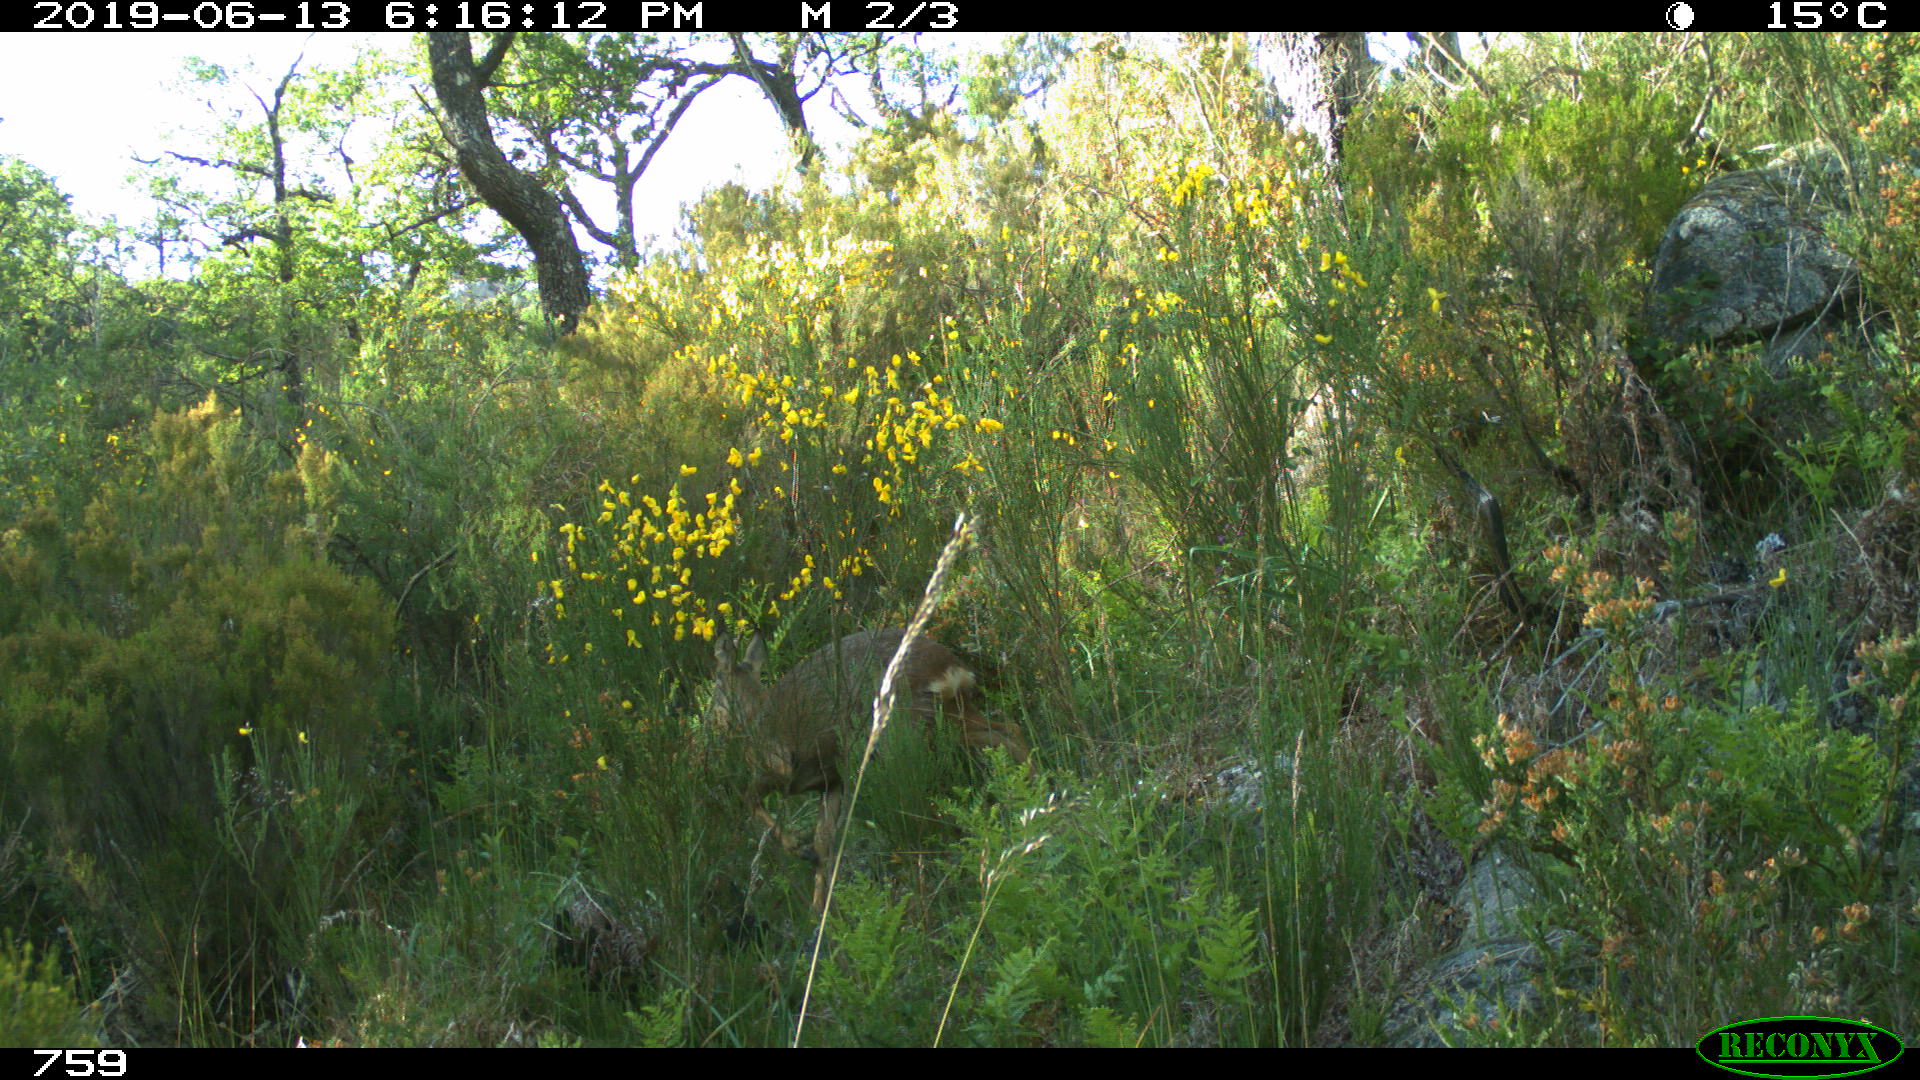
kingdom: Animalia
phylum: Chordata
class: Mammalia
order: Artiodactyla
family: Cervidae
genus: Capreolus
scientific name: Capreolus capreolus
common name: Western roe deer
